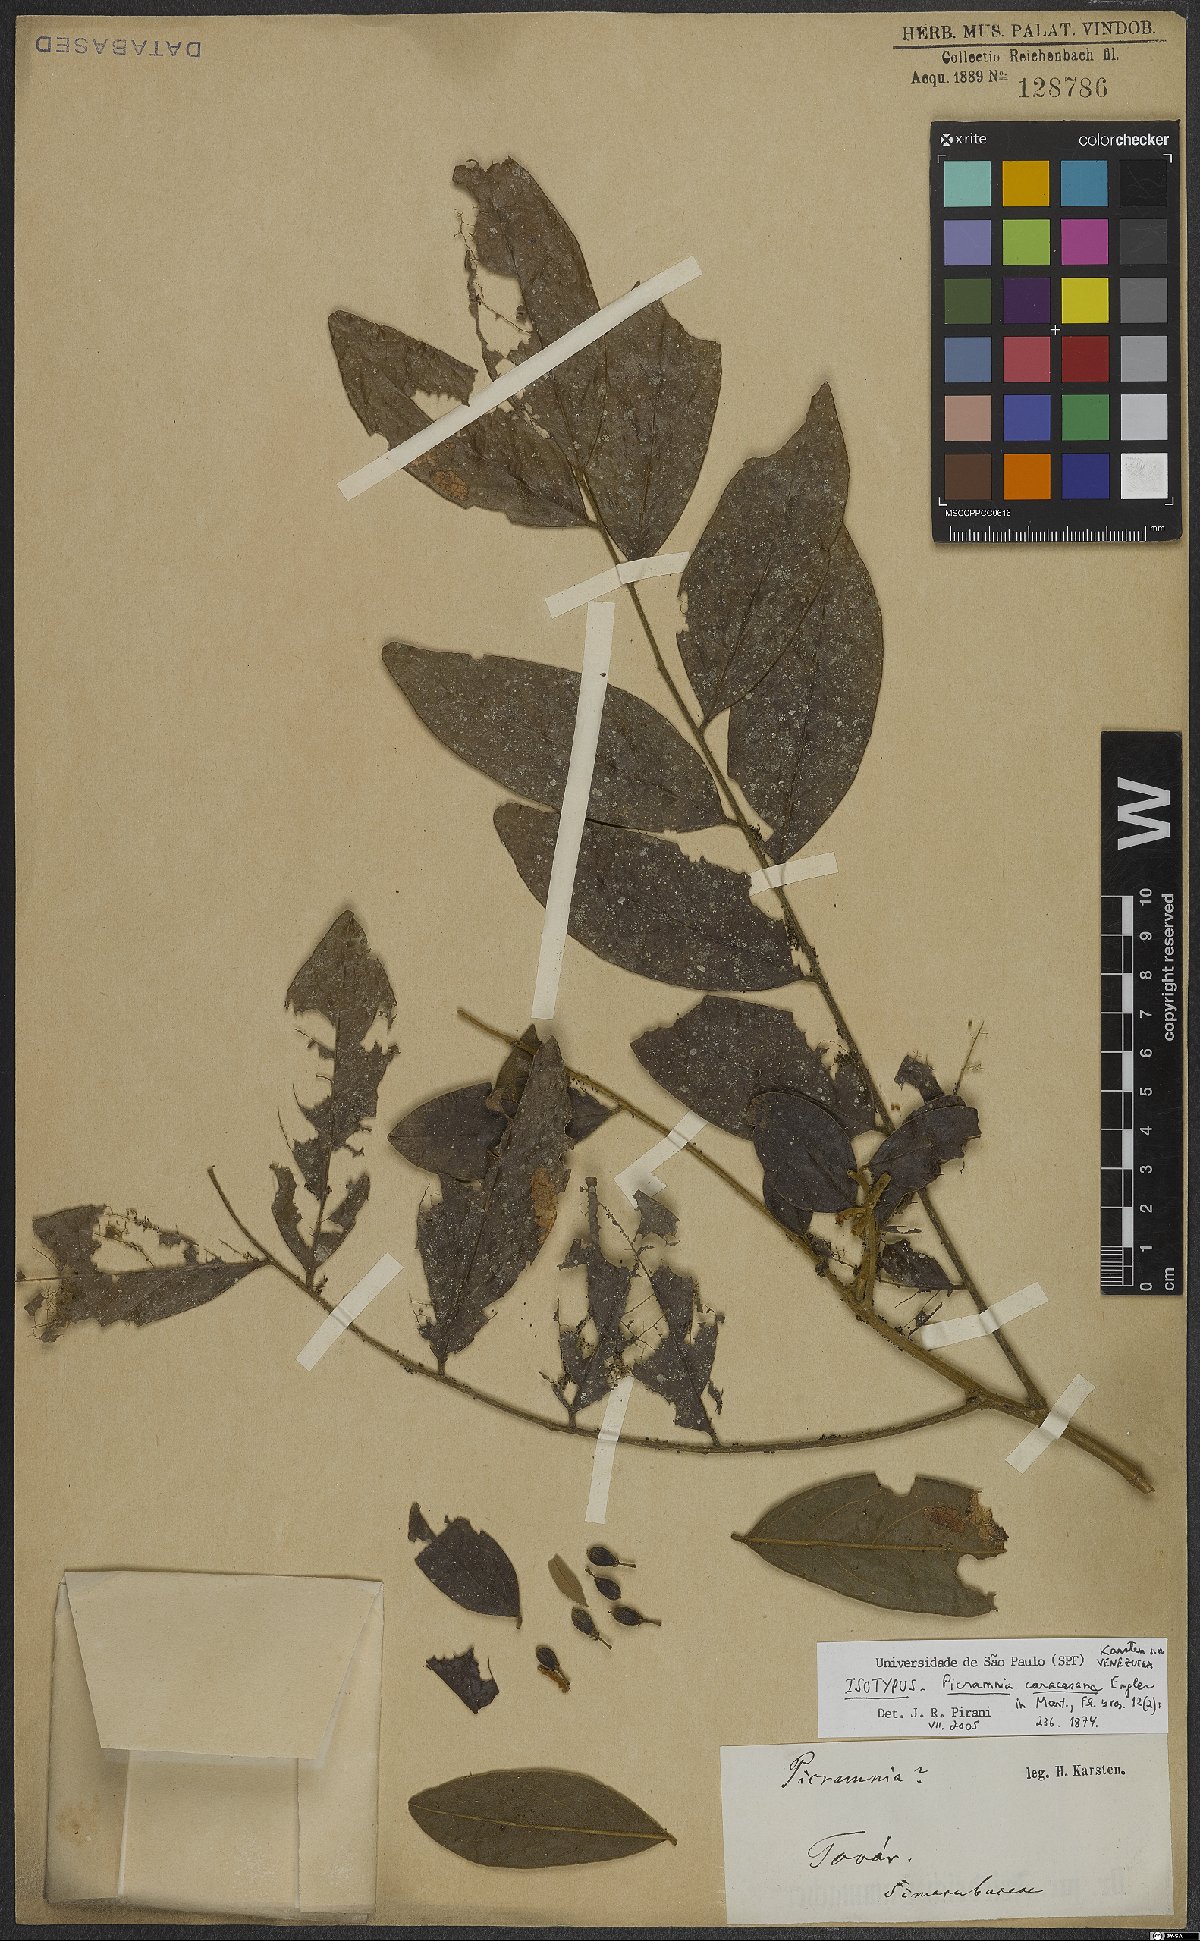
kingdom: Plantae
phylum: Tracheophyta
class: Magnoliopsida
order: Picramniales
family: Picramniaceae
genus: Picramnia
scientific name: Picramnia caracasana
